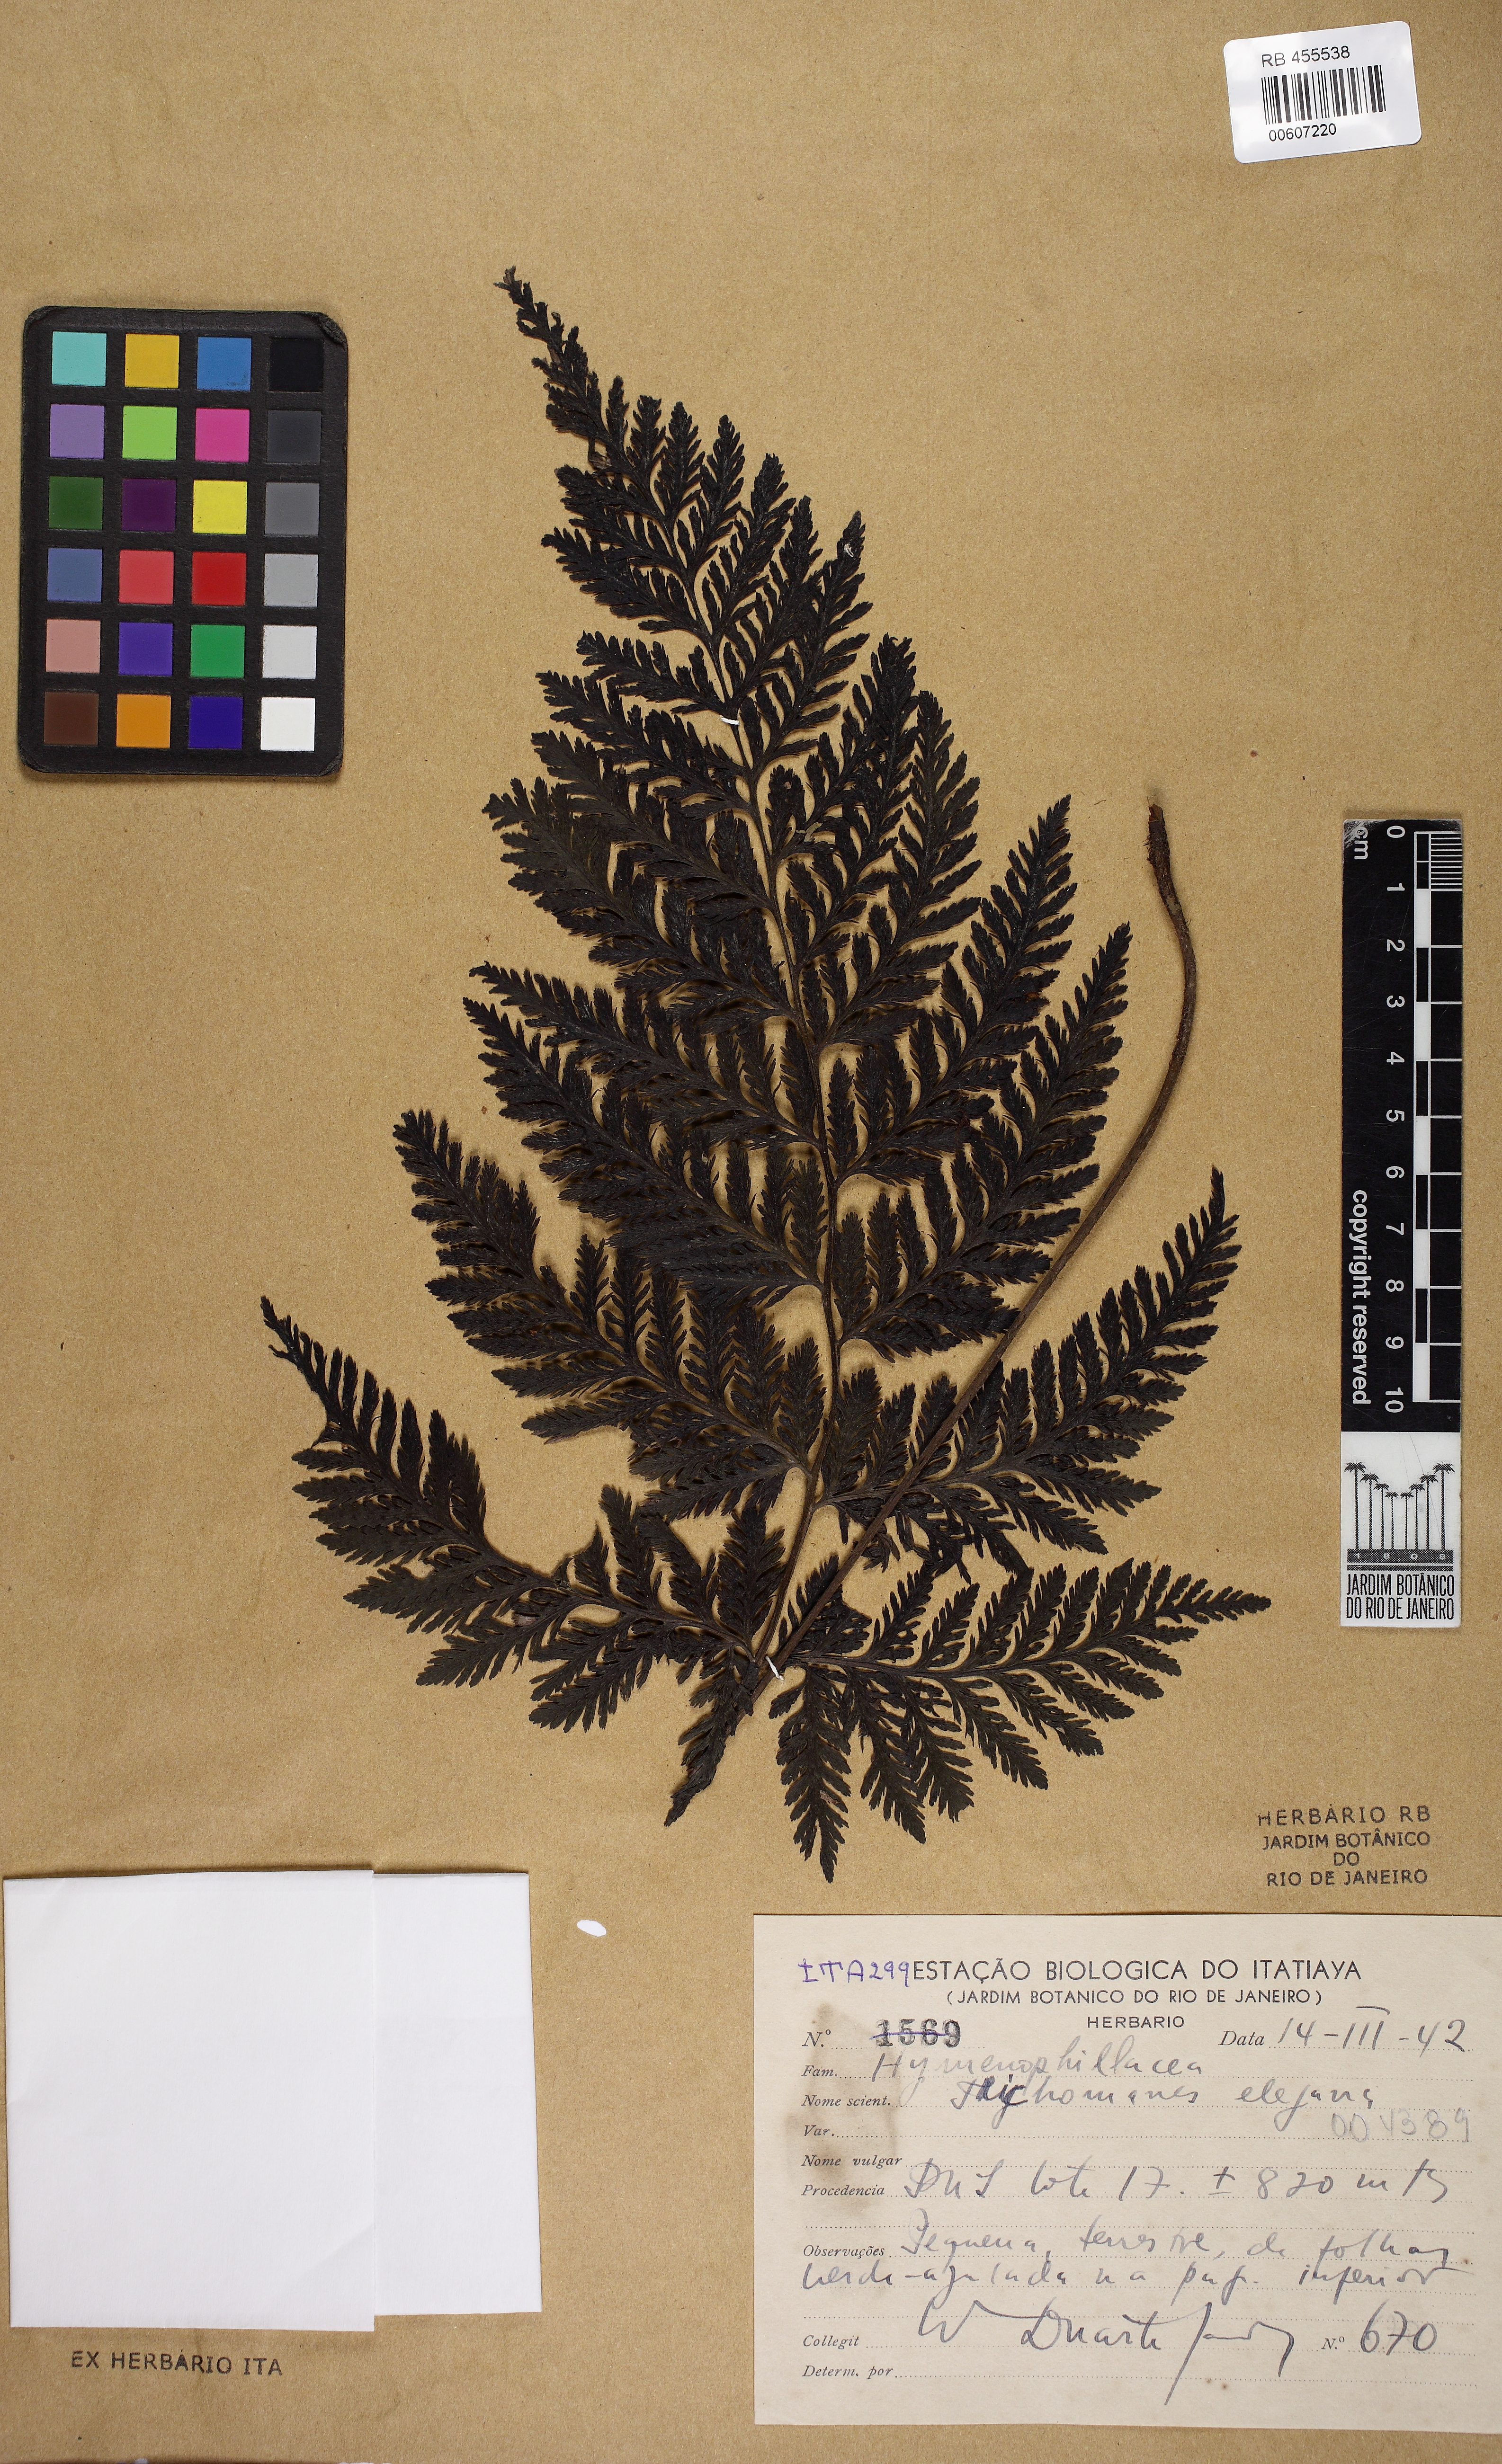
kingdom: Plantae
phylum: Tracheophyta
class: Polypodiopsida
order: Hymenophyllales
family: Hymenophyllaceae
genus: Trichomanes
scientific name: Trichomanes elegans
